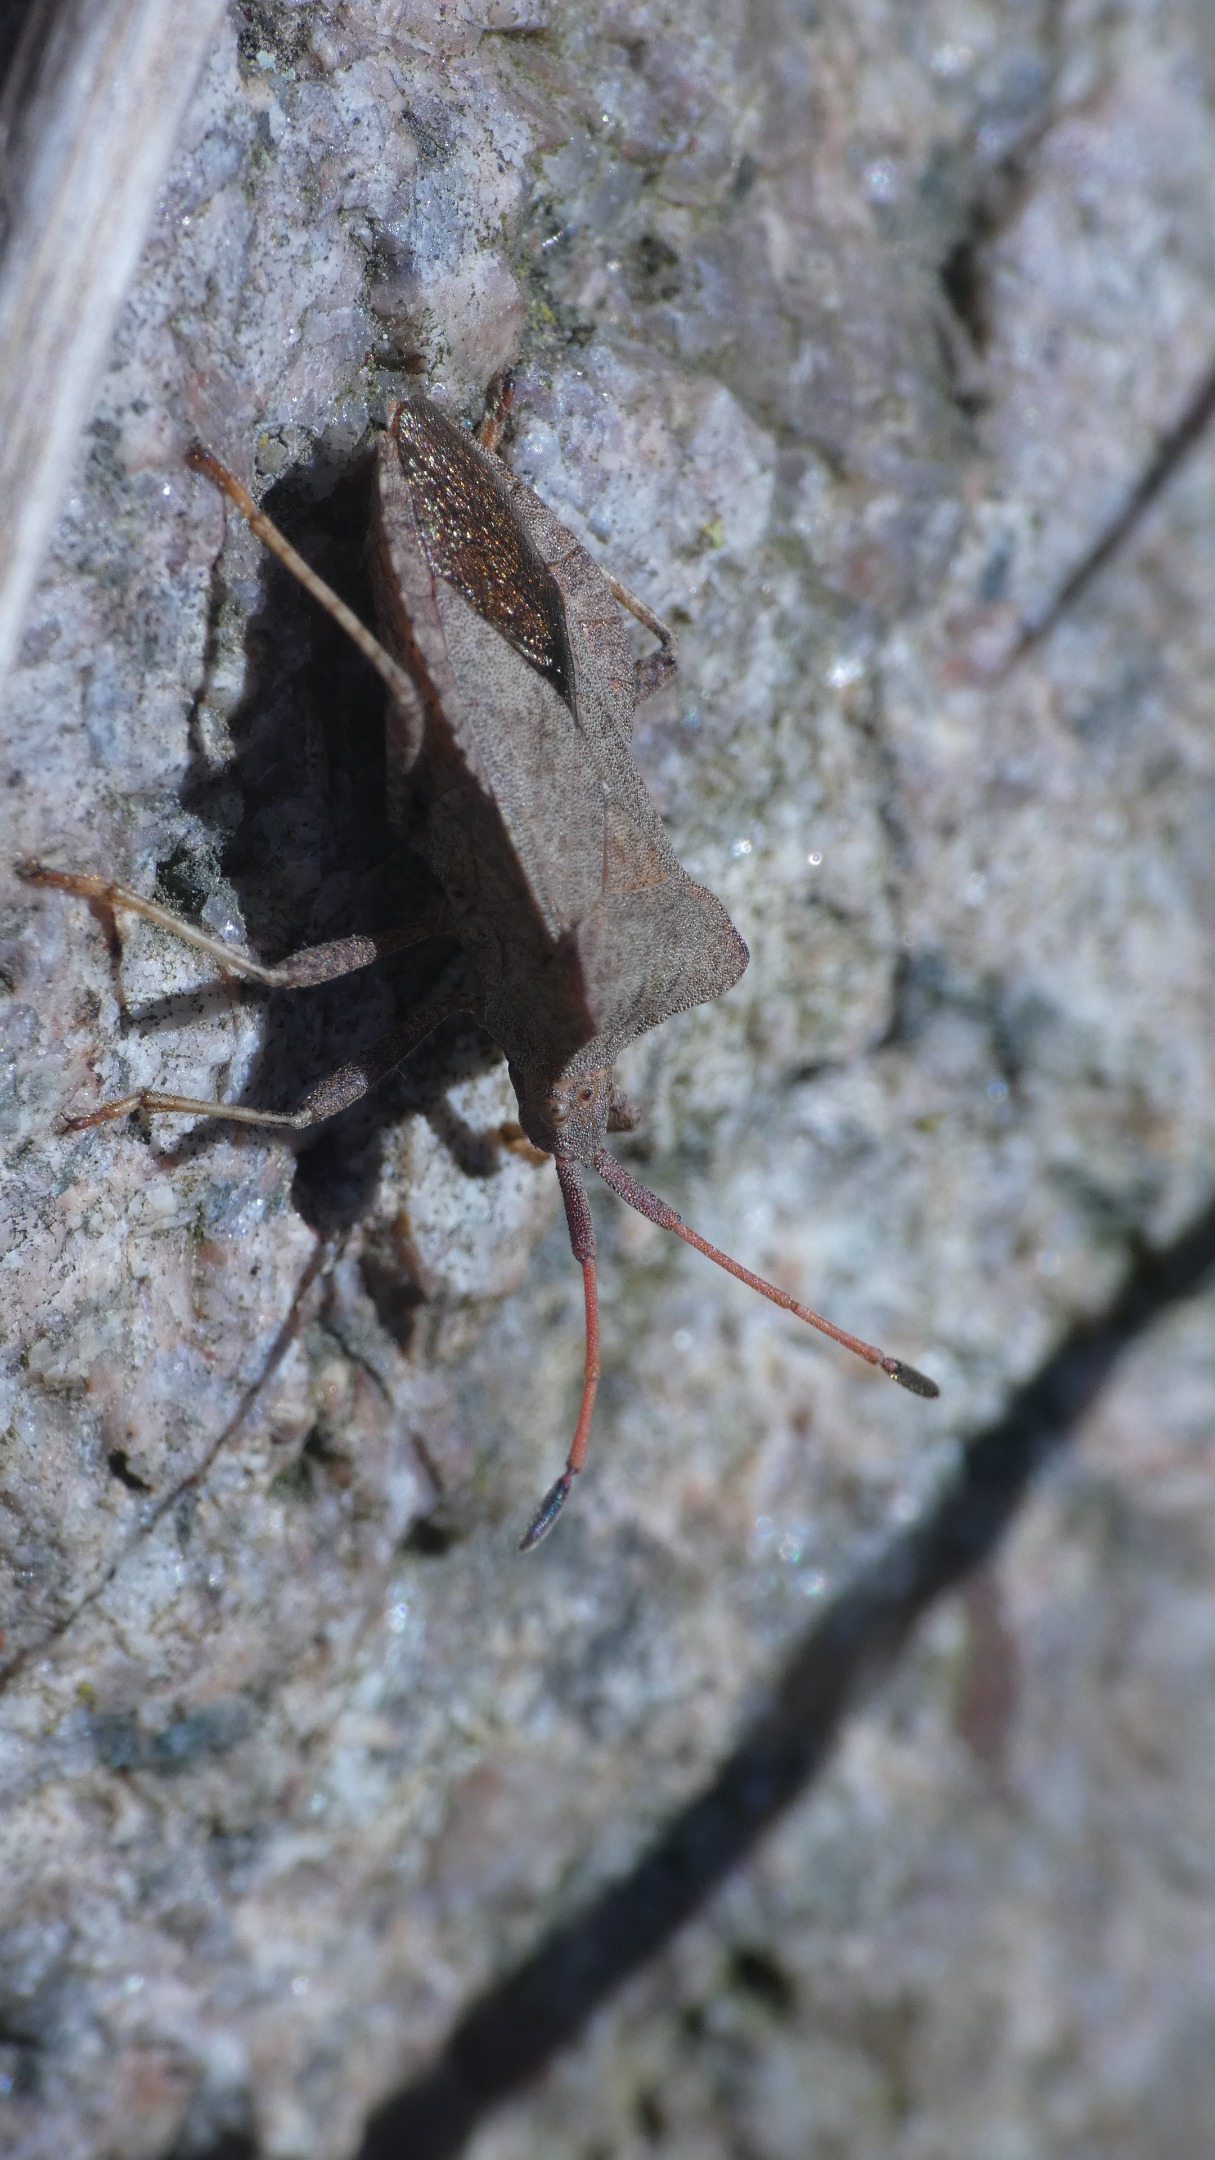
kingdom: Animalia
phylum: Arthropoda
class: Insecta
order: Hemiptera
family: Coreidae
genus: Coreus
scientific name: Coreus marginatus
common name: Skræppetæge
